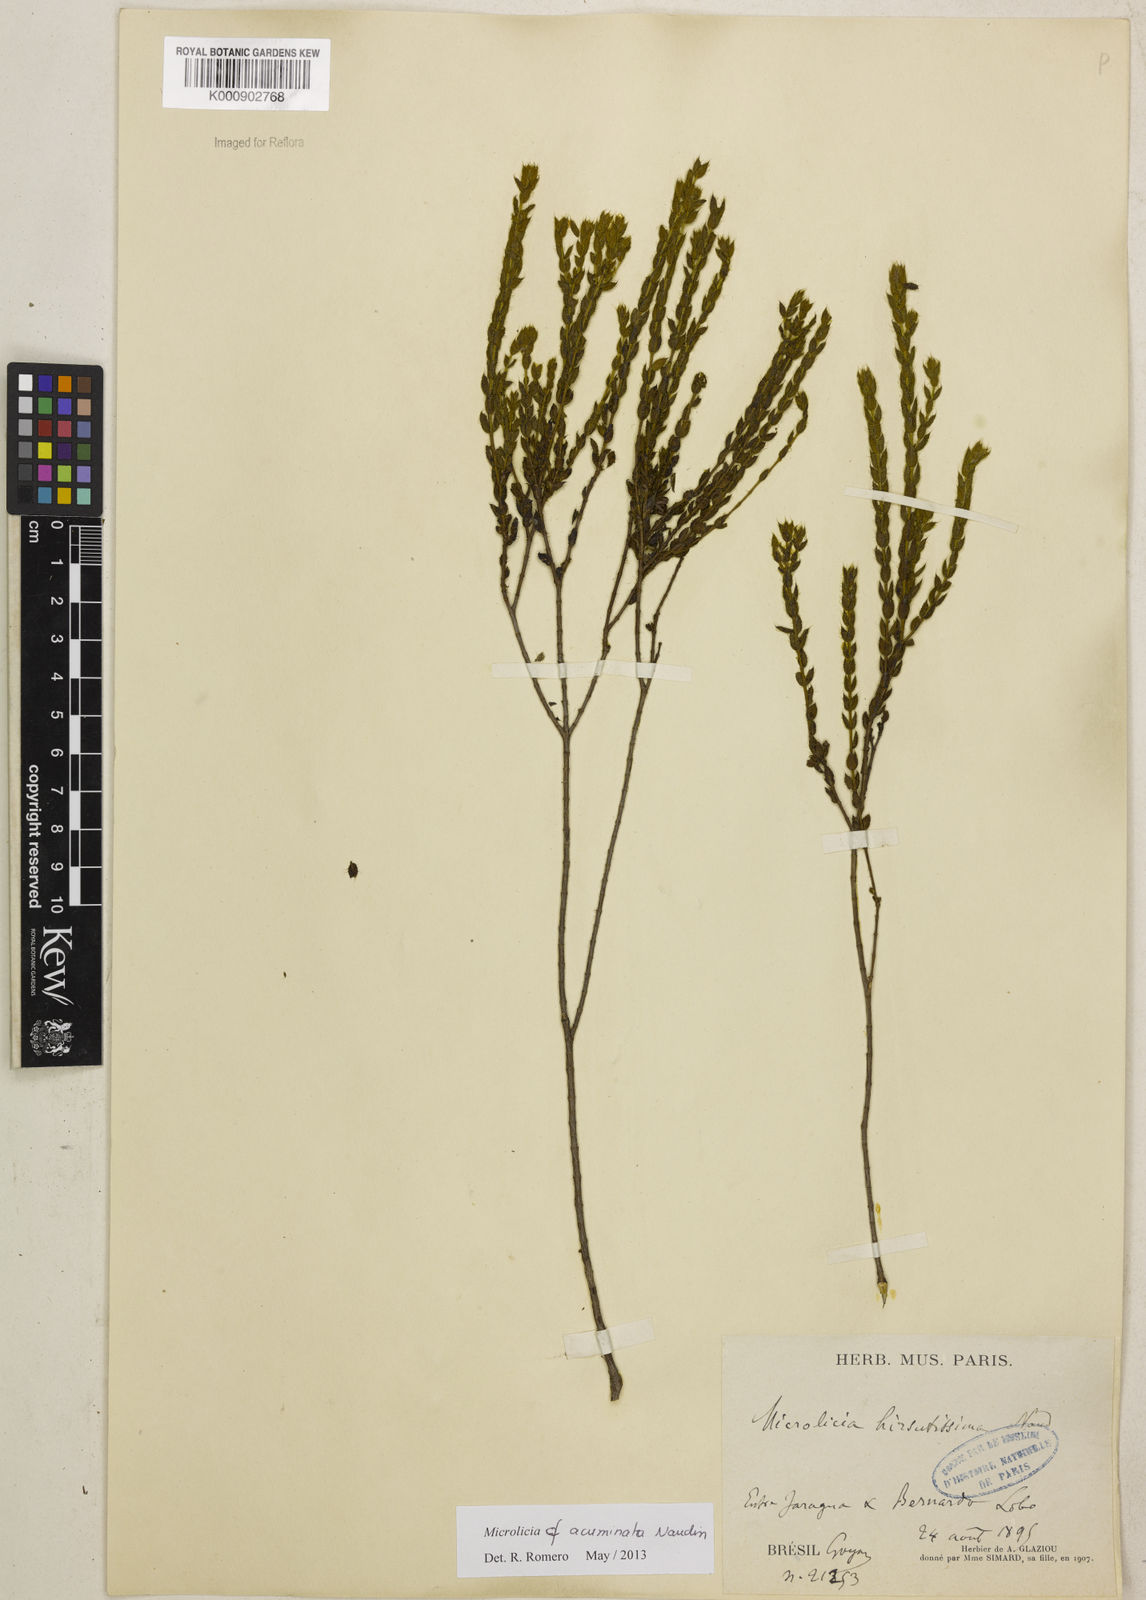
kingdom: Plantae
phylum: Tracheophyta
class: Magnoliopsida
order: Myrtales
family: Melastomataceae
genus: Microlicia
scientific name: Microlicia
